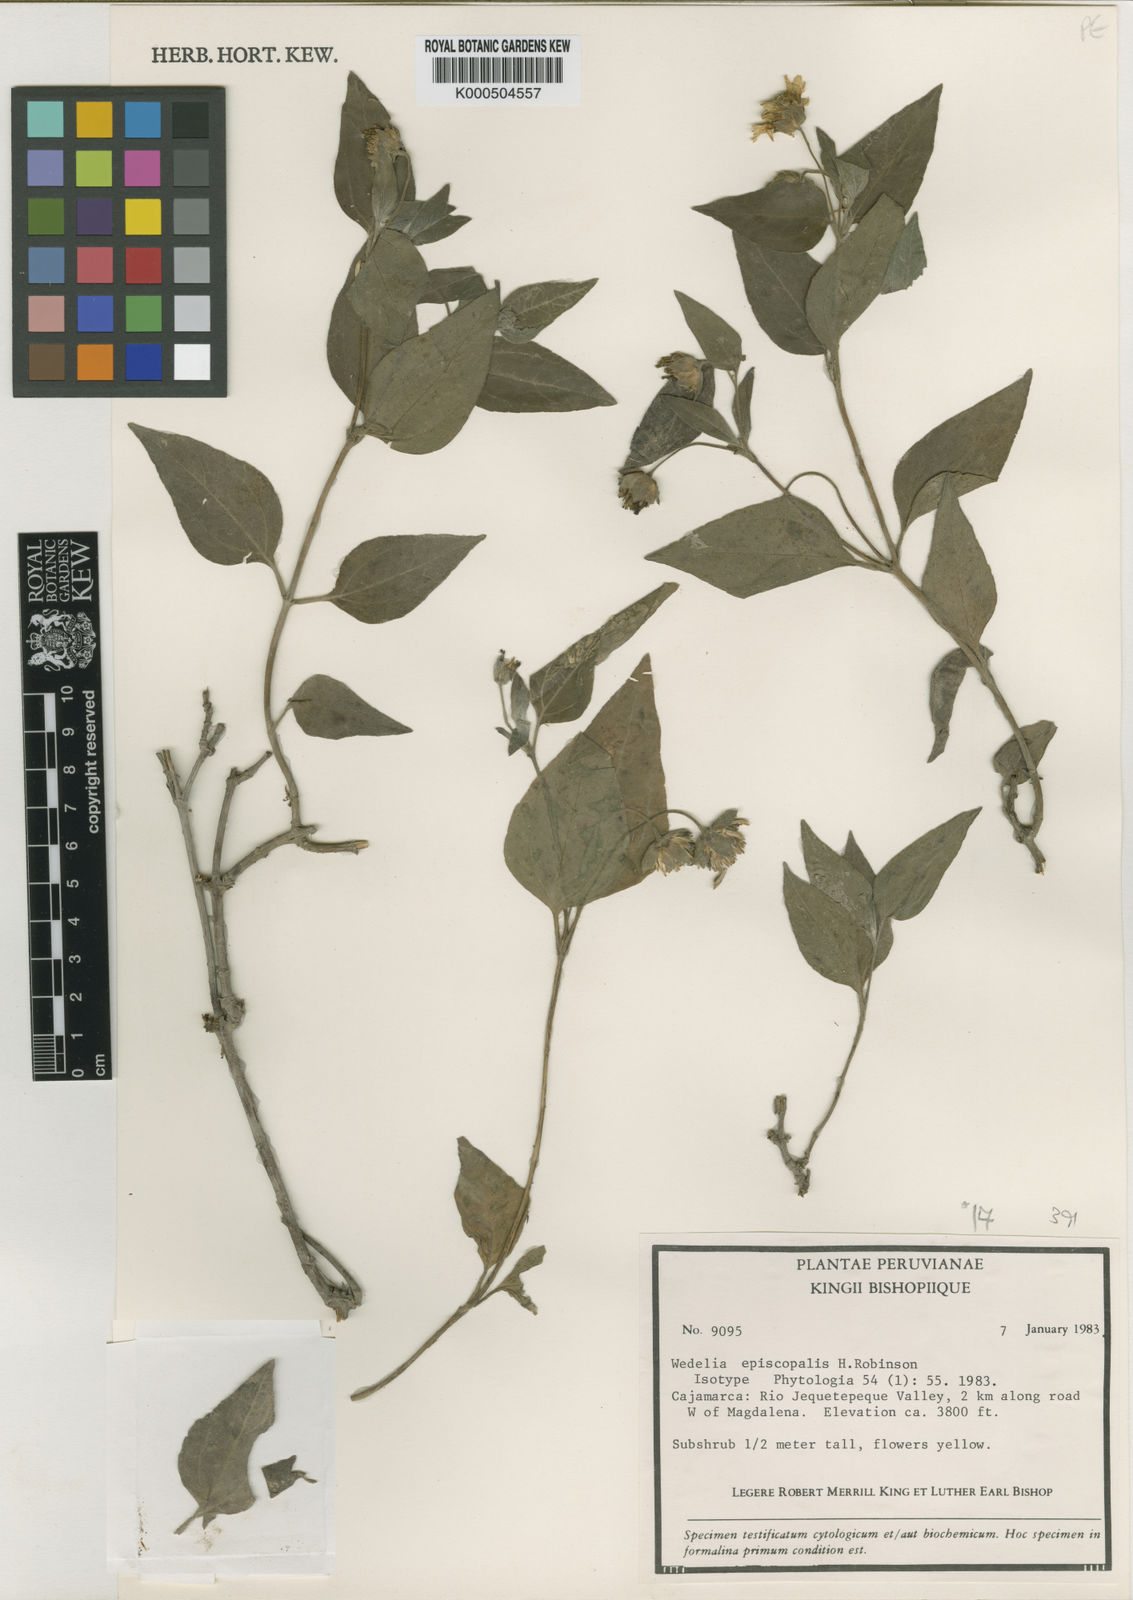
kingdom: Plantae
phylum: Tracheophyta
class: Magnoliopsida
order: Asterales
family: Asteraceae
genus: Wedelia
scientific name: Wedelia episcopalis
